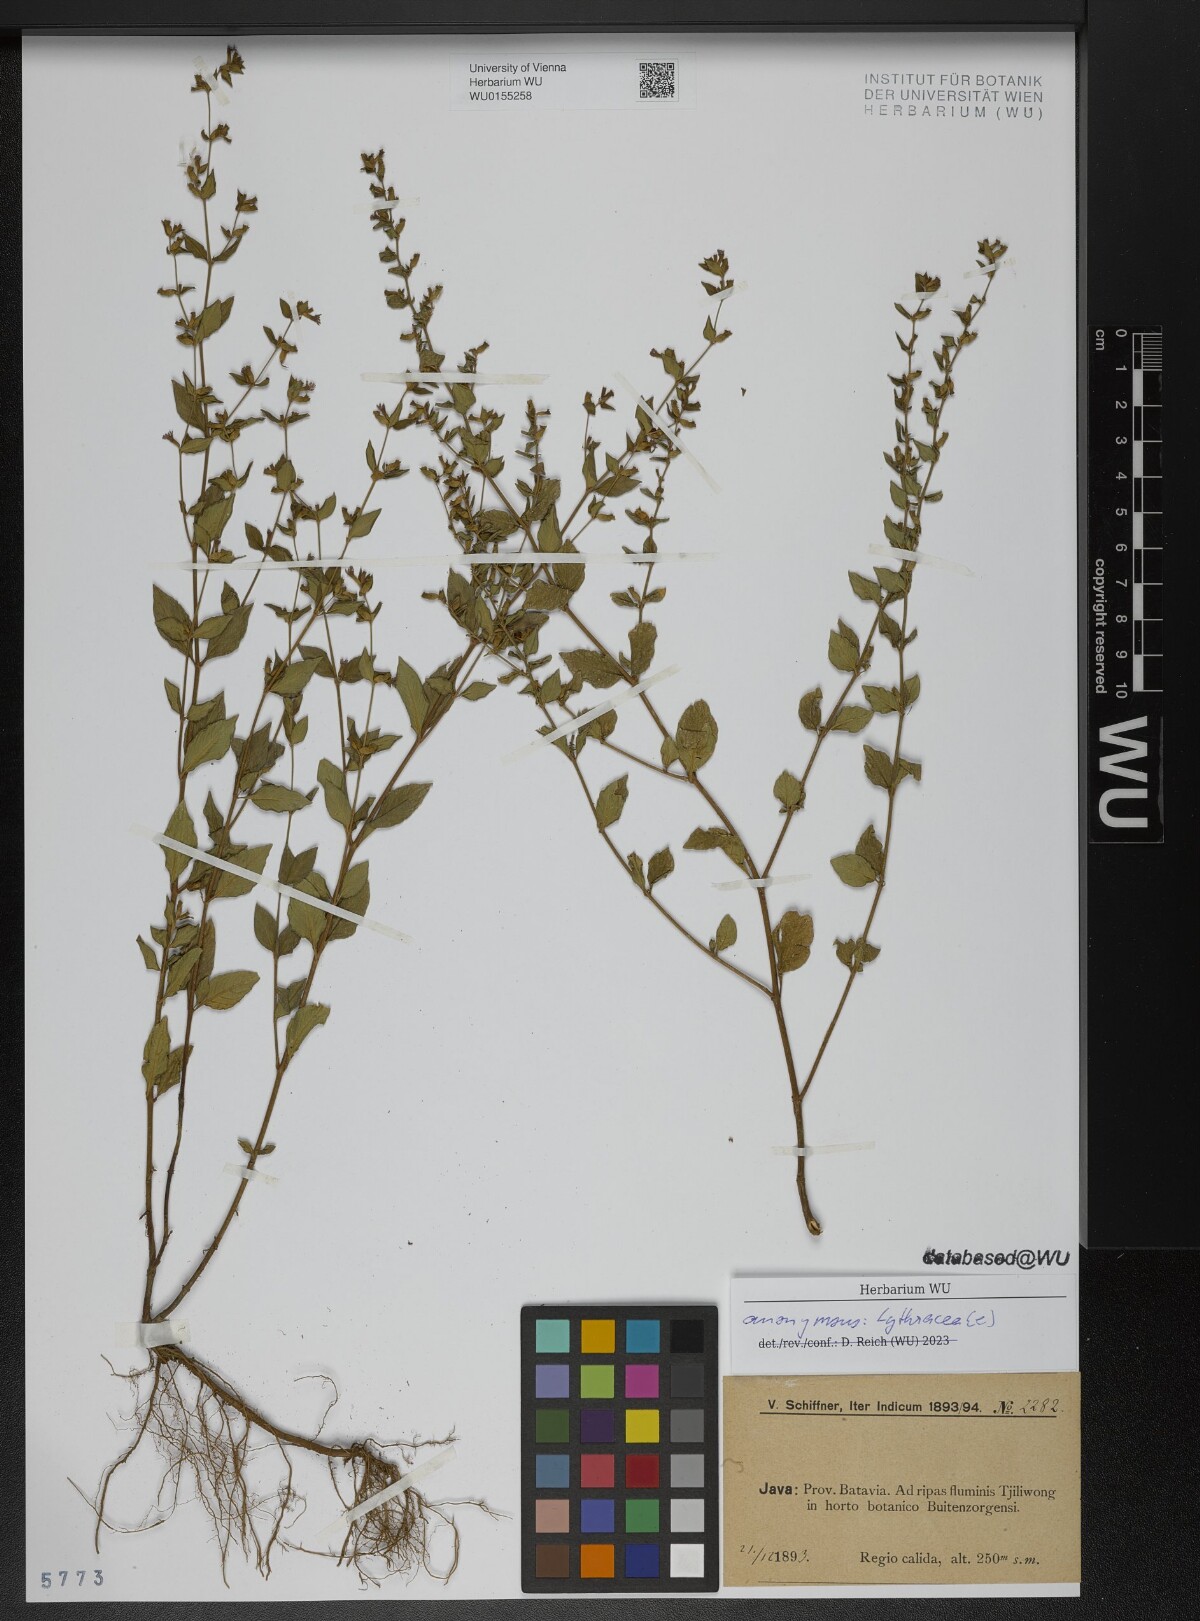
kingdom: Plantae
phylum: Tracheophyta
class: Magnoliopsida
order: Myrtales
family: Lythraceae
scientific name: Lythraceae
